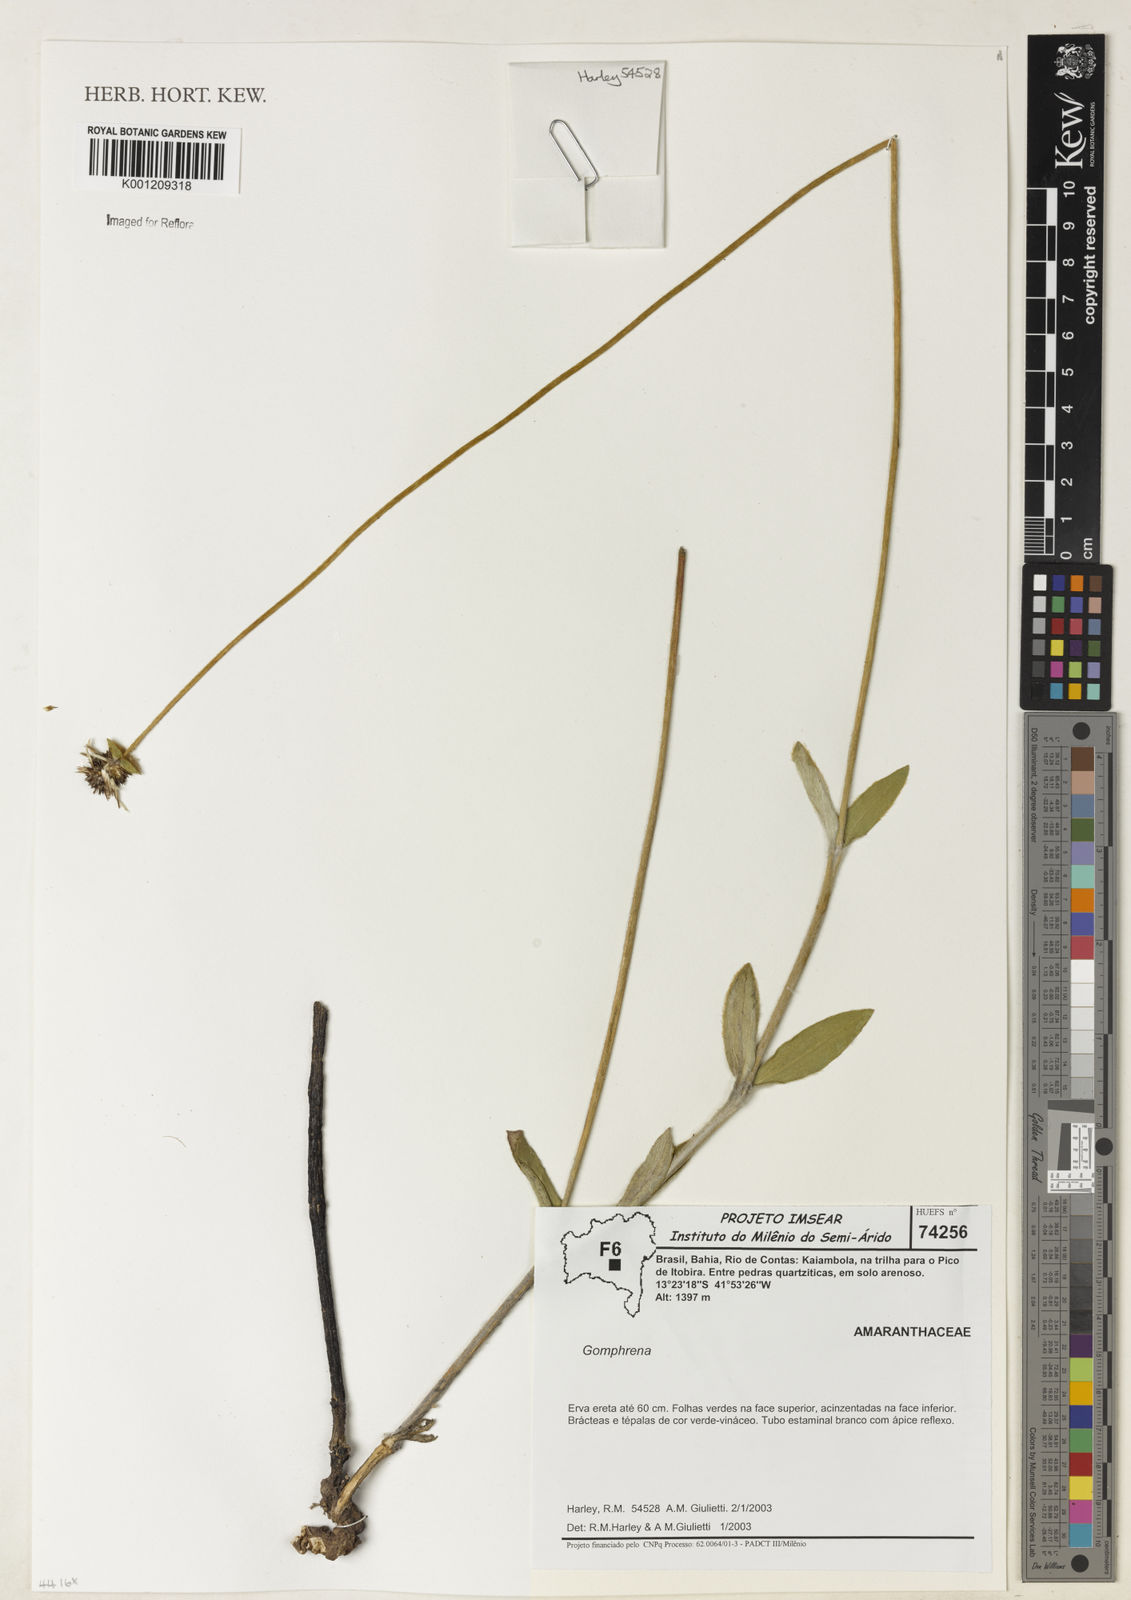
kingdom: Plantae
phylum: Tracheophyta
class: Magnoliopsida
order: Caryophyllales
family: Amaranthaceae
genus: Gomphrena
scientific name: Gomphrena
